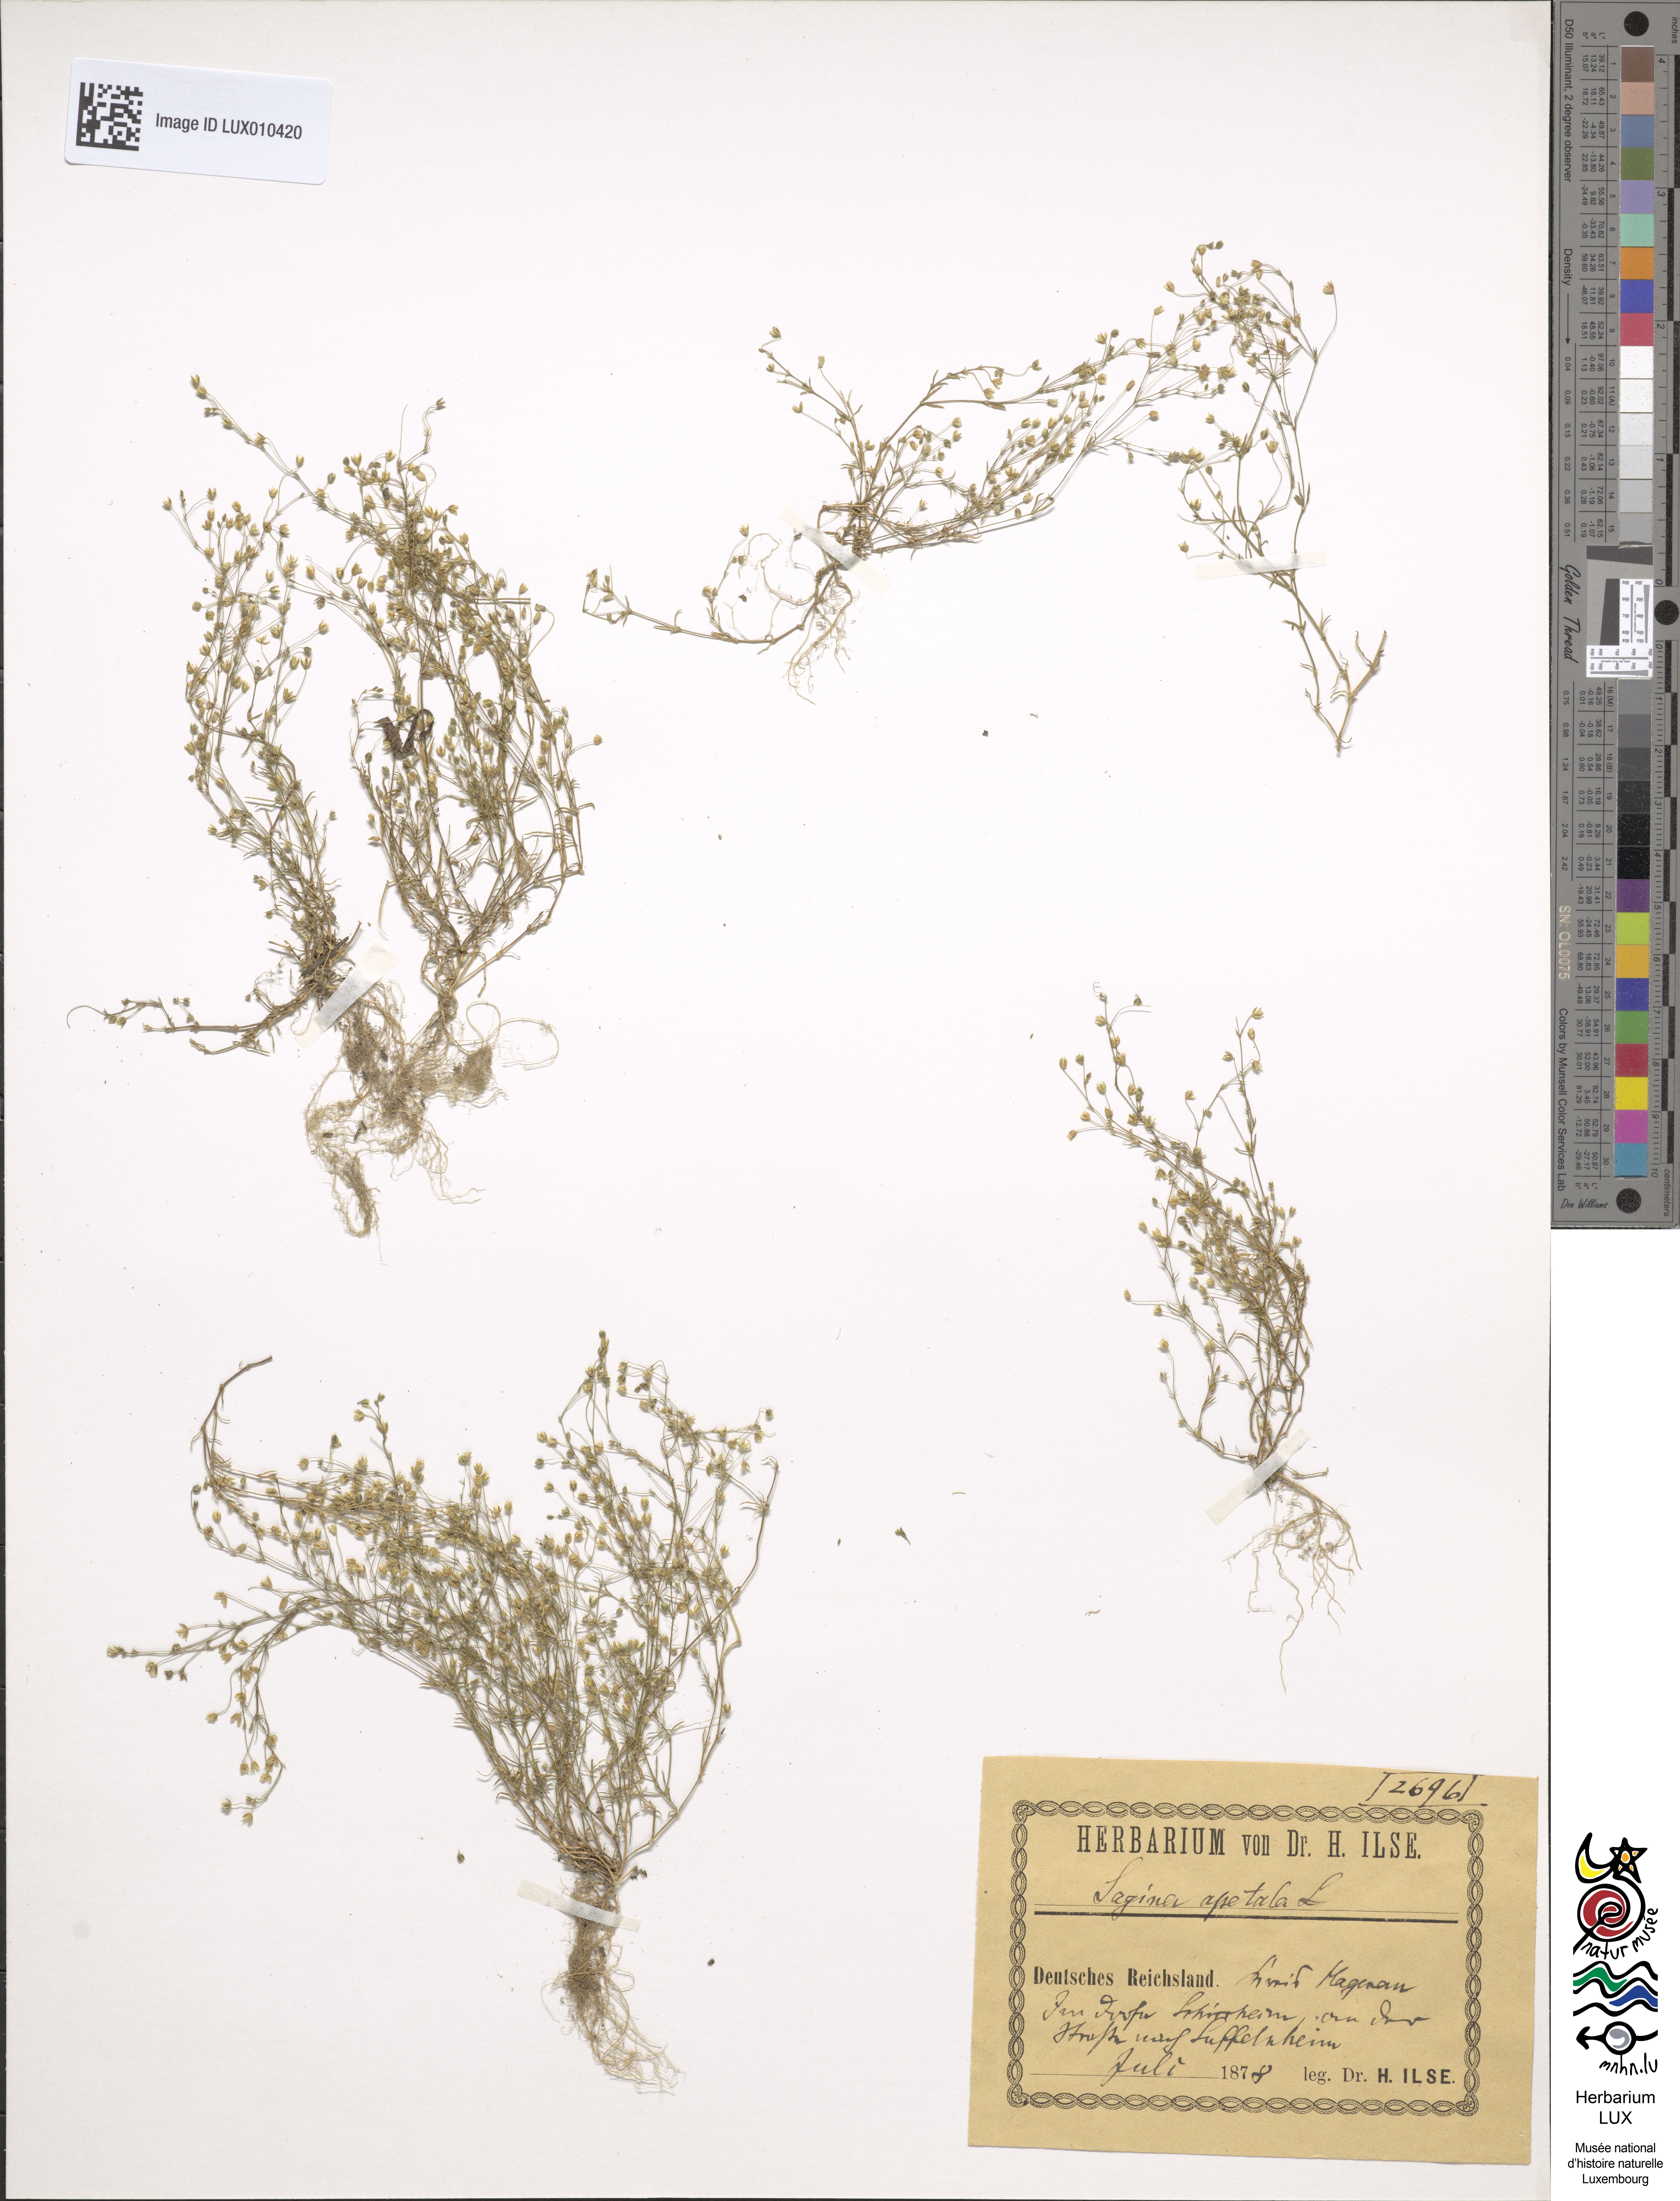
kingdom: Plantae
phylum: Tracheophyta
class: Magnoliopsida
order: Caryophyllales
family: Caryophyllaceae
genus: Sagina
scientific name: Sagina apetala
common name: Annual pearlwort
